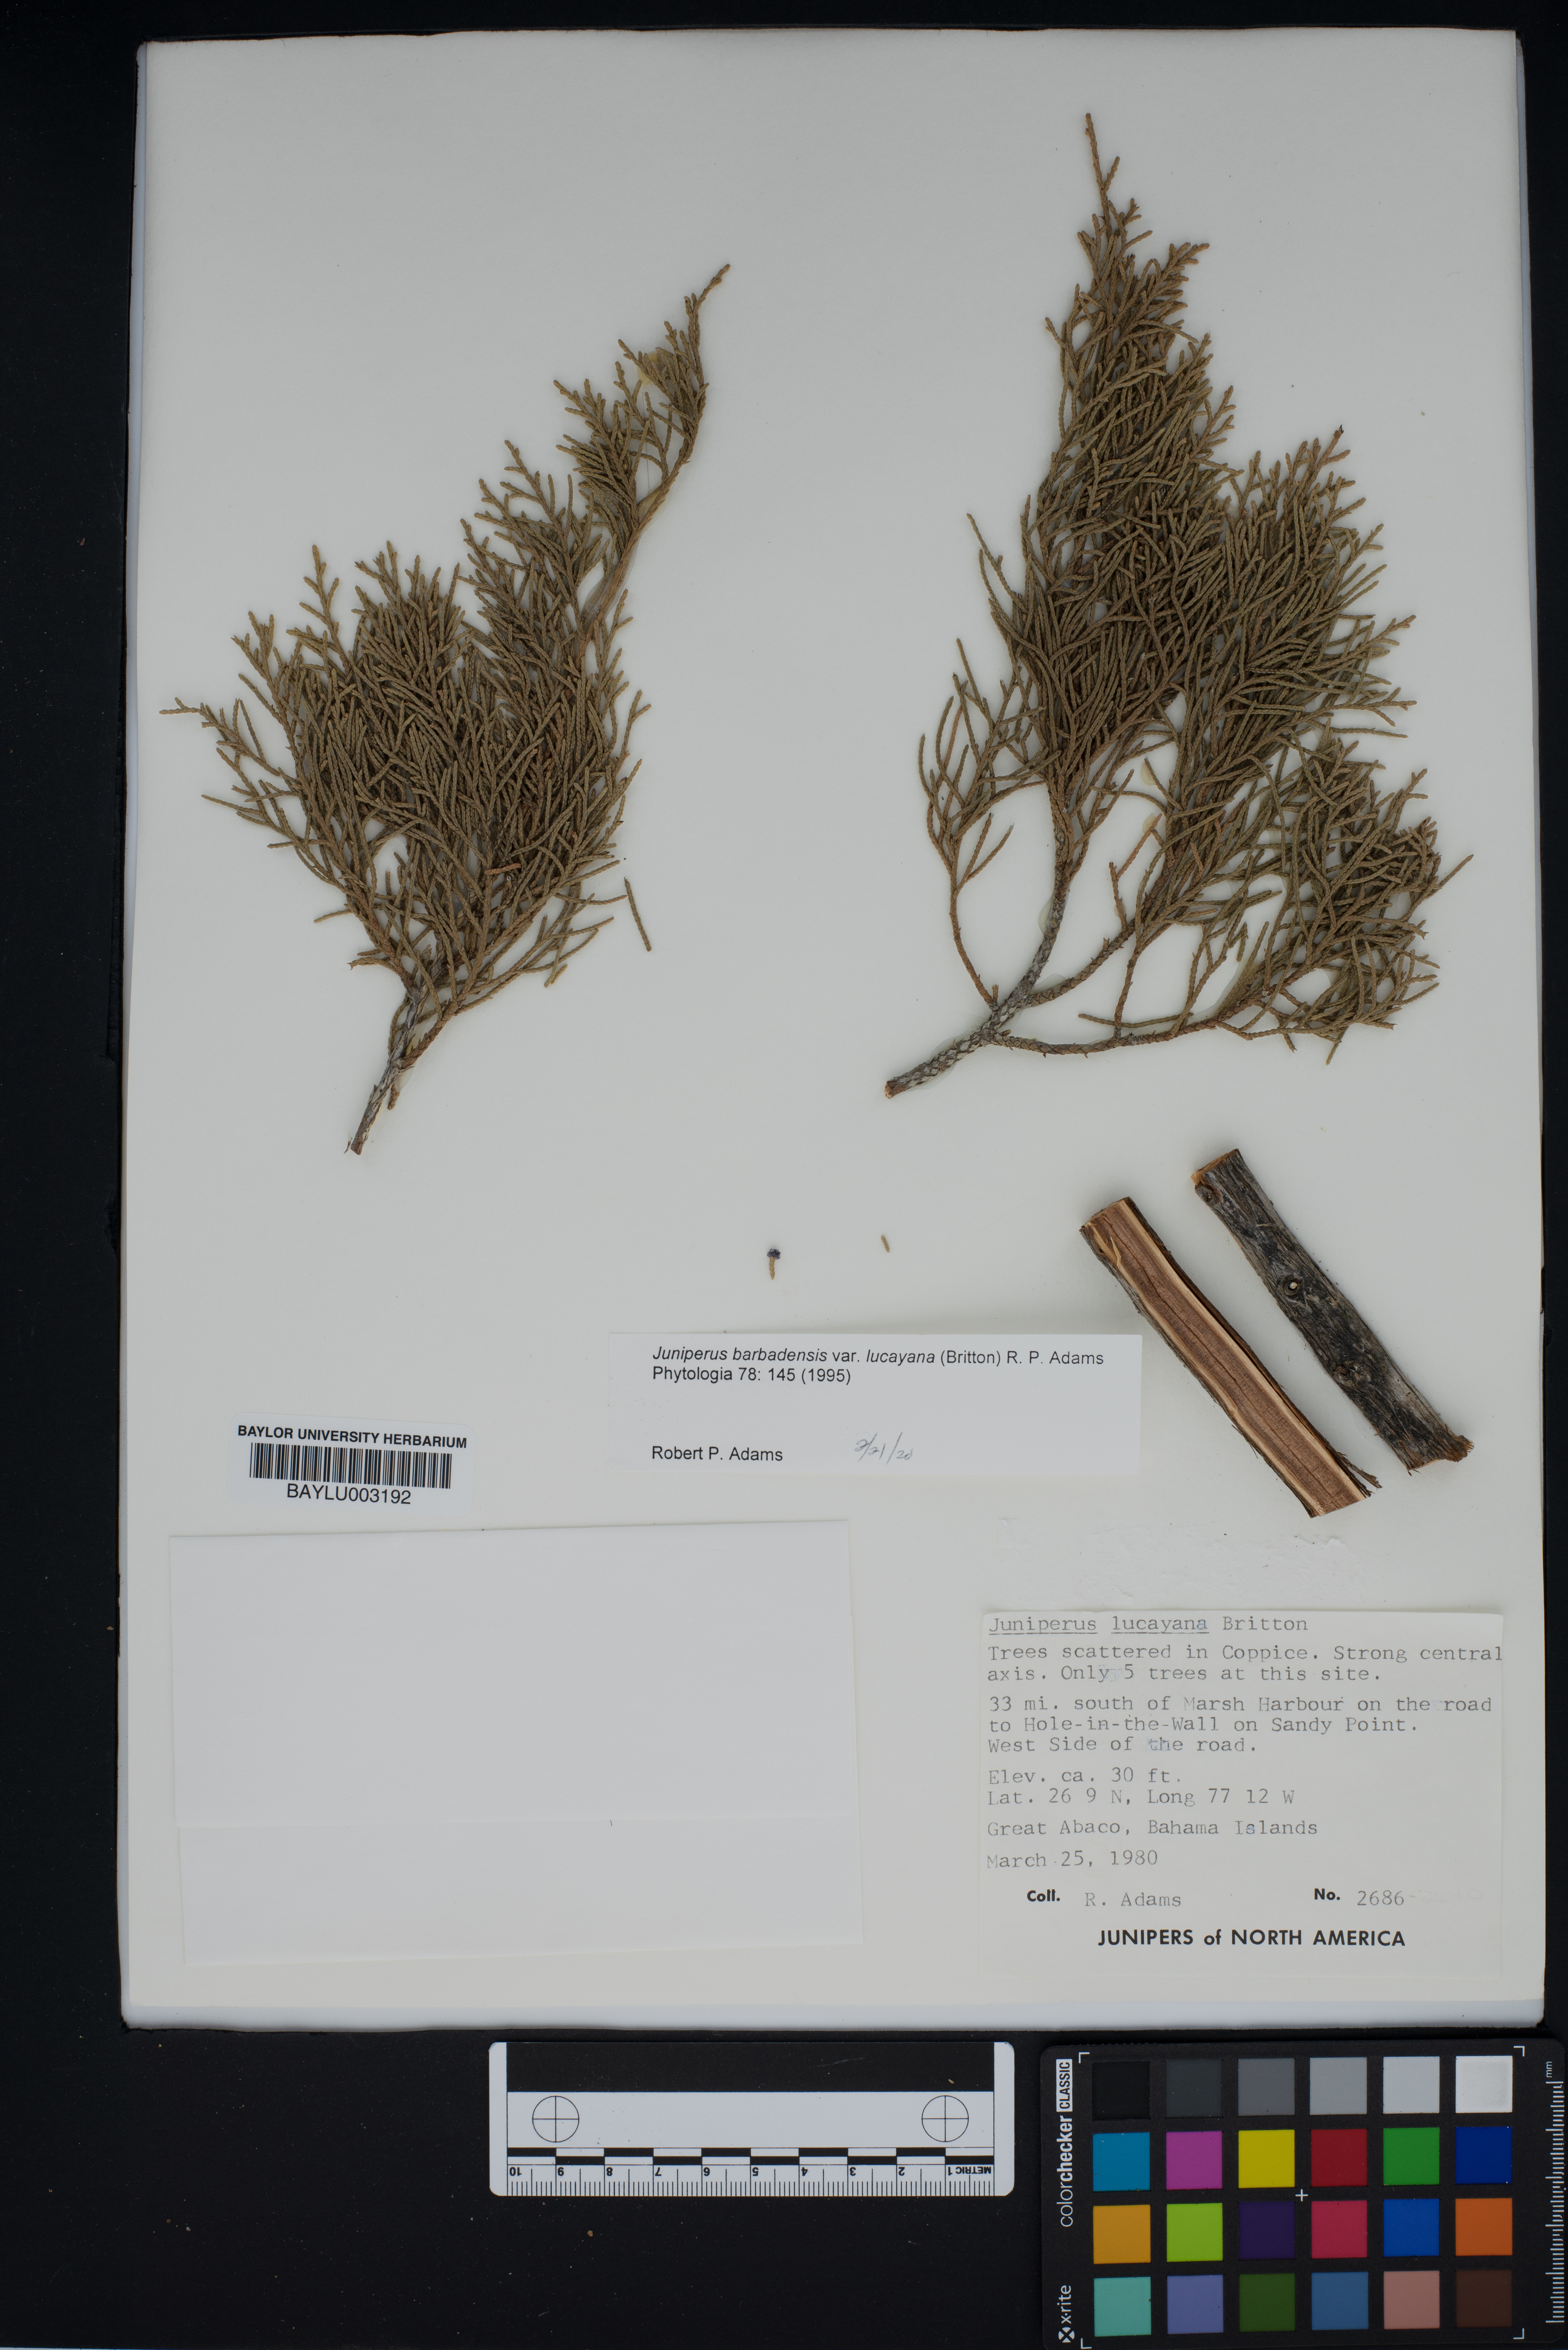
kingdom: Plantae
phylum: Tracheophyta
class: Pinopsida
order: Pinales
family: Cupressaceae
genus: Juniperus
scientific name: Juniperus barbadensis
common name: West indies juniper
